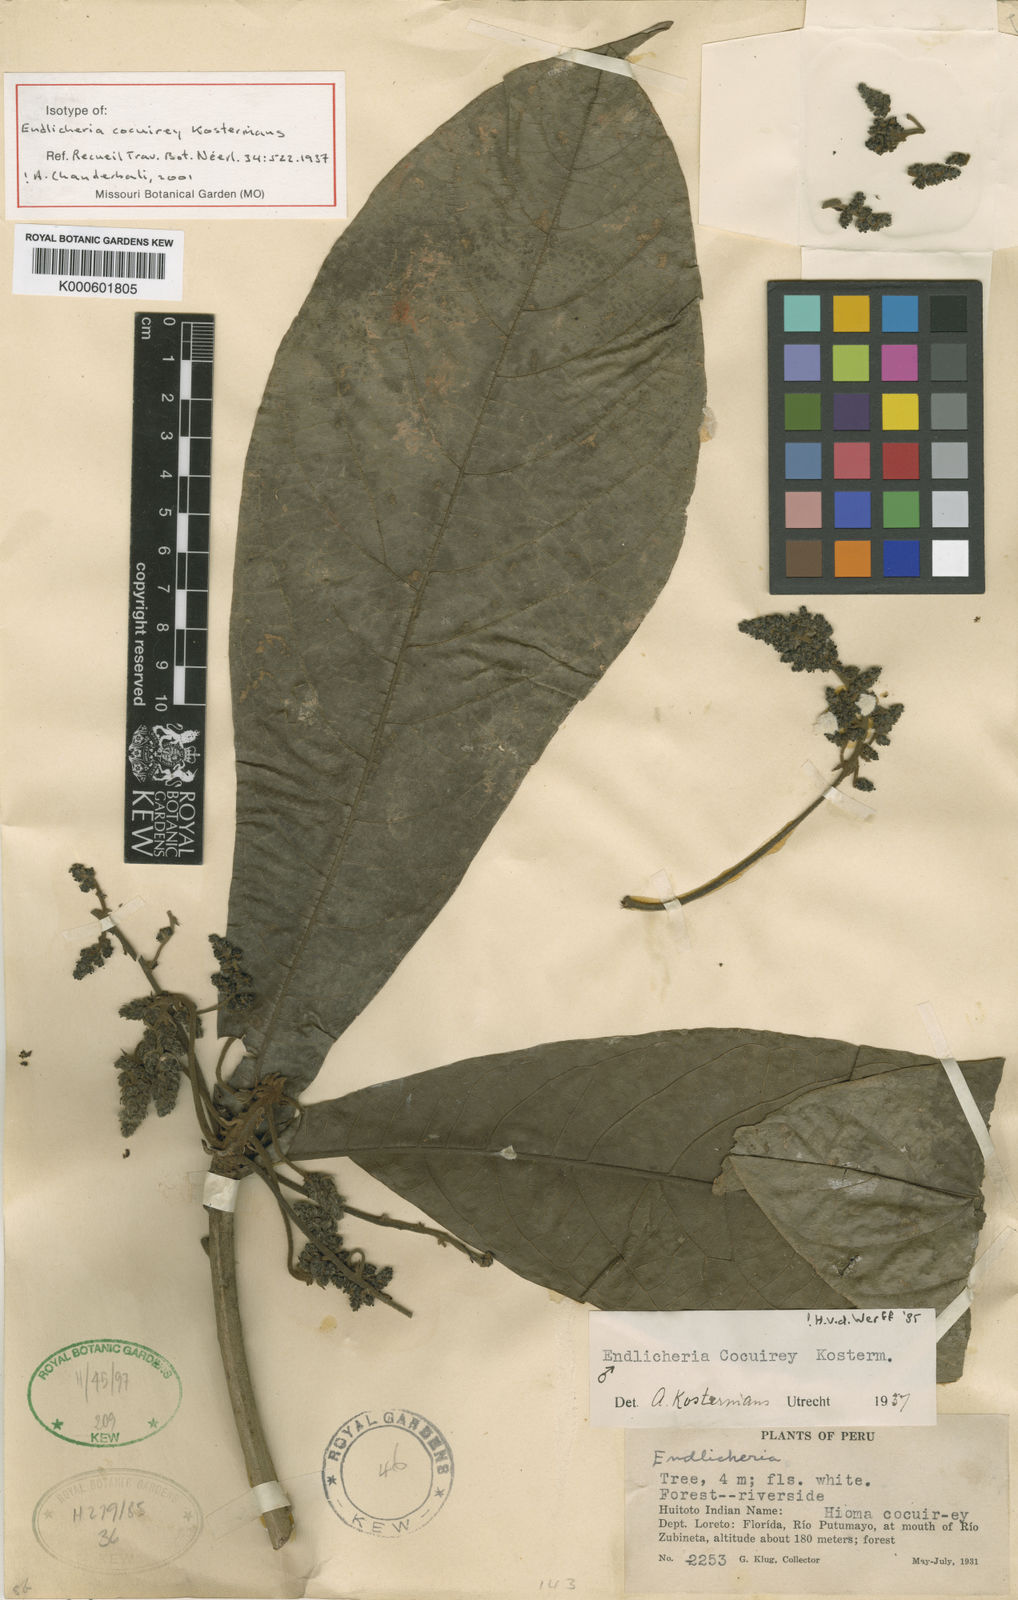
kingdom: Plantae
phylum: Tracheophyta
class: Magnoliopsida
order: Laurales
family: Lauraceae
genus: Endlicheria
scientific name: Endlicheria cocuirey
